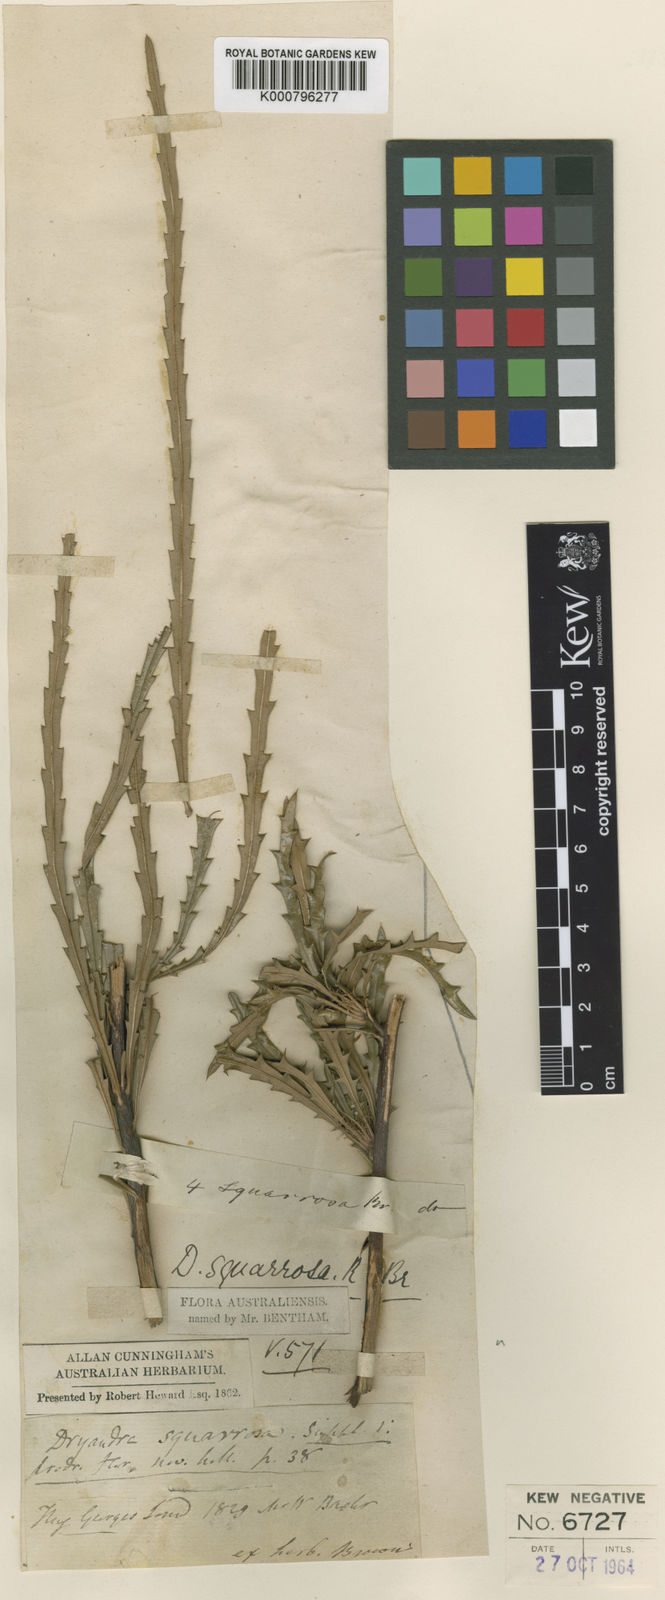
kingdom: Plantae
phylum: Tracheophyta
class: Magnoliopsida
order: Proteales
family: Proteaceae
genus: Banksia
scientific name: Banksia squarrosa
